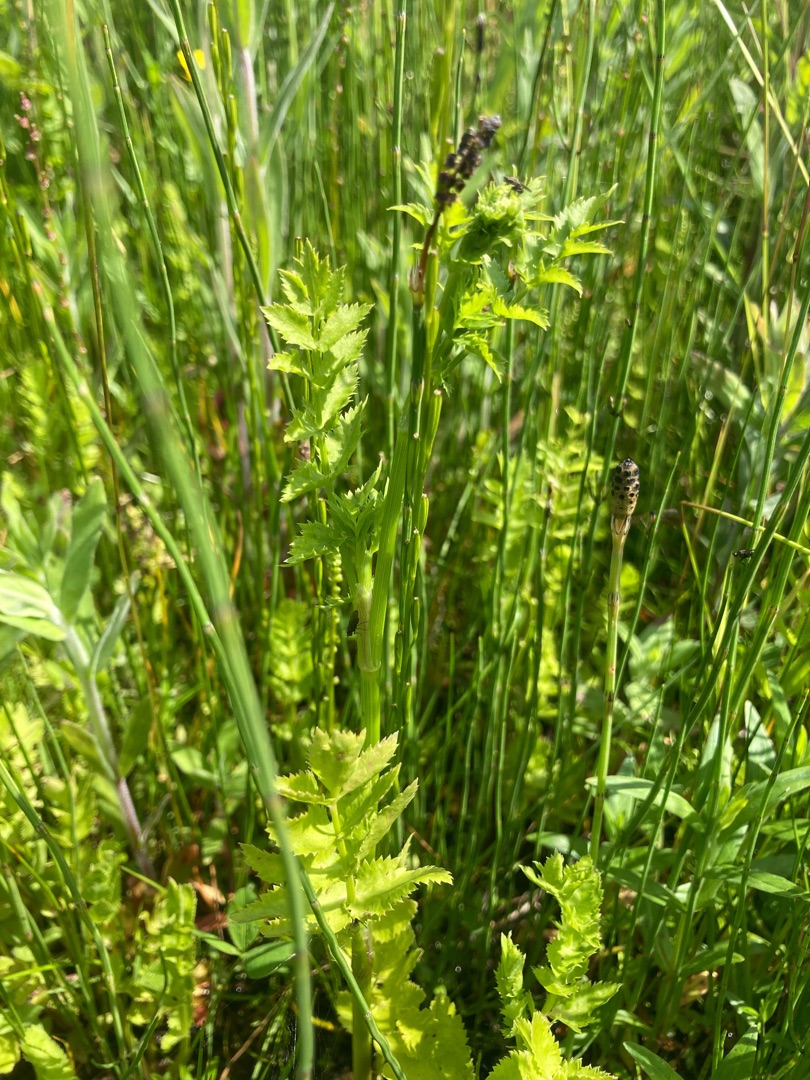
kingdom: Plantae
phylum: Tracheophyta
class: Magnoliopsida
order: Apiales
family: Apiaceae
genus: Berula
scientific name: Berula erecta
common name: Sideskærm
